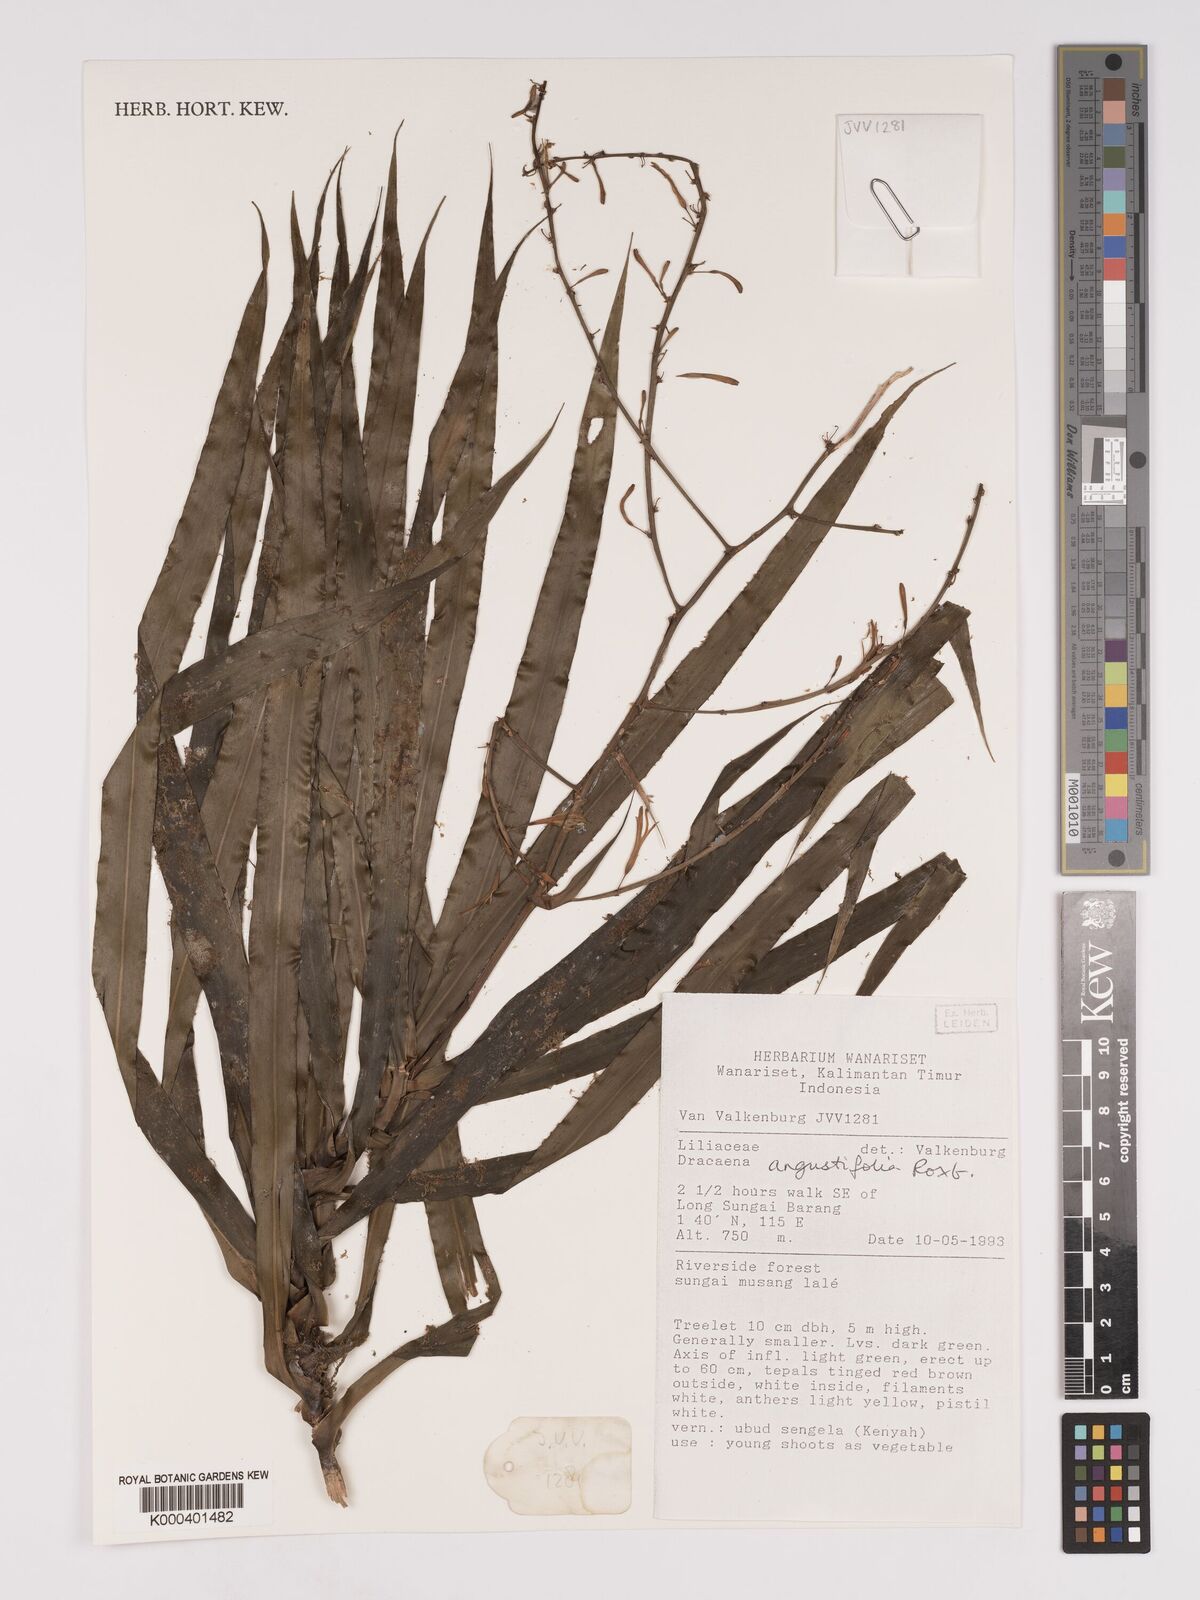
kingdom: Plantae
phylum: Tracheophyta
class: Liliopsida
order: Asparagales
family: Asparagaceae
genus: Dracaena
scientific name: Dracaena angustifolia
